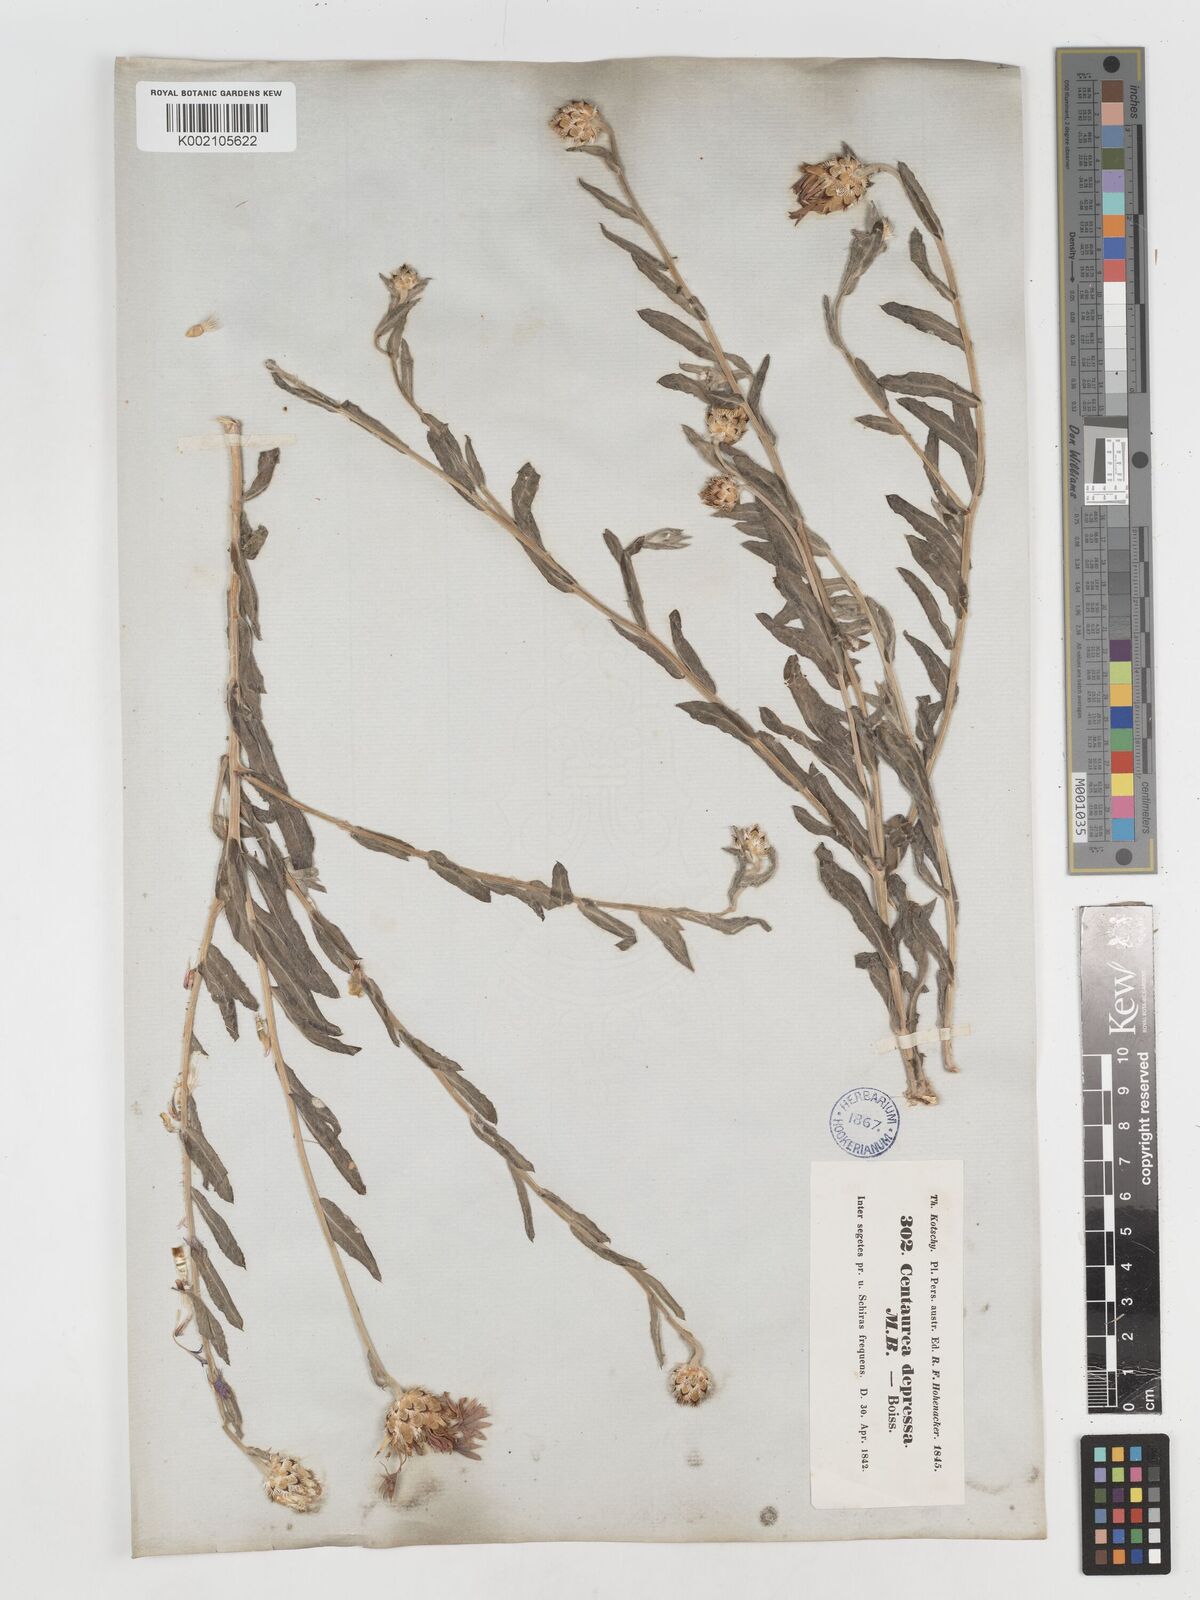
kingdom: Plantae
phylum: Tracheophyta
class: Magnoliopsida
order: Asterales
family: Asteraceae
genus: Centaurea
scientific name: Centaurea depressa
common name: Iranian knapweed
